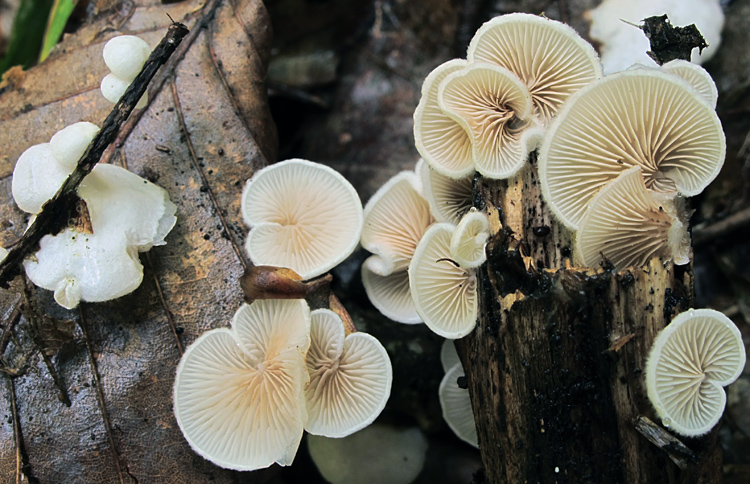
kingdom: Fungi
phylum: Basidiomycota
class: Agaricomycetes
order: Agaricales
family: Crepidotaceae
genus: Crepidotus
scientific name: Crepidotus variabilis
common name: forskelligformet muslingesvamp
